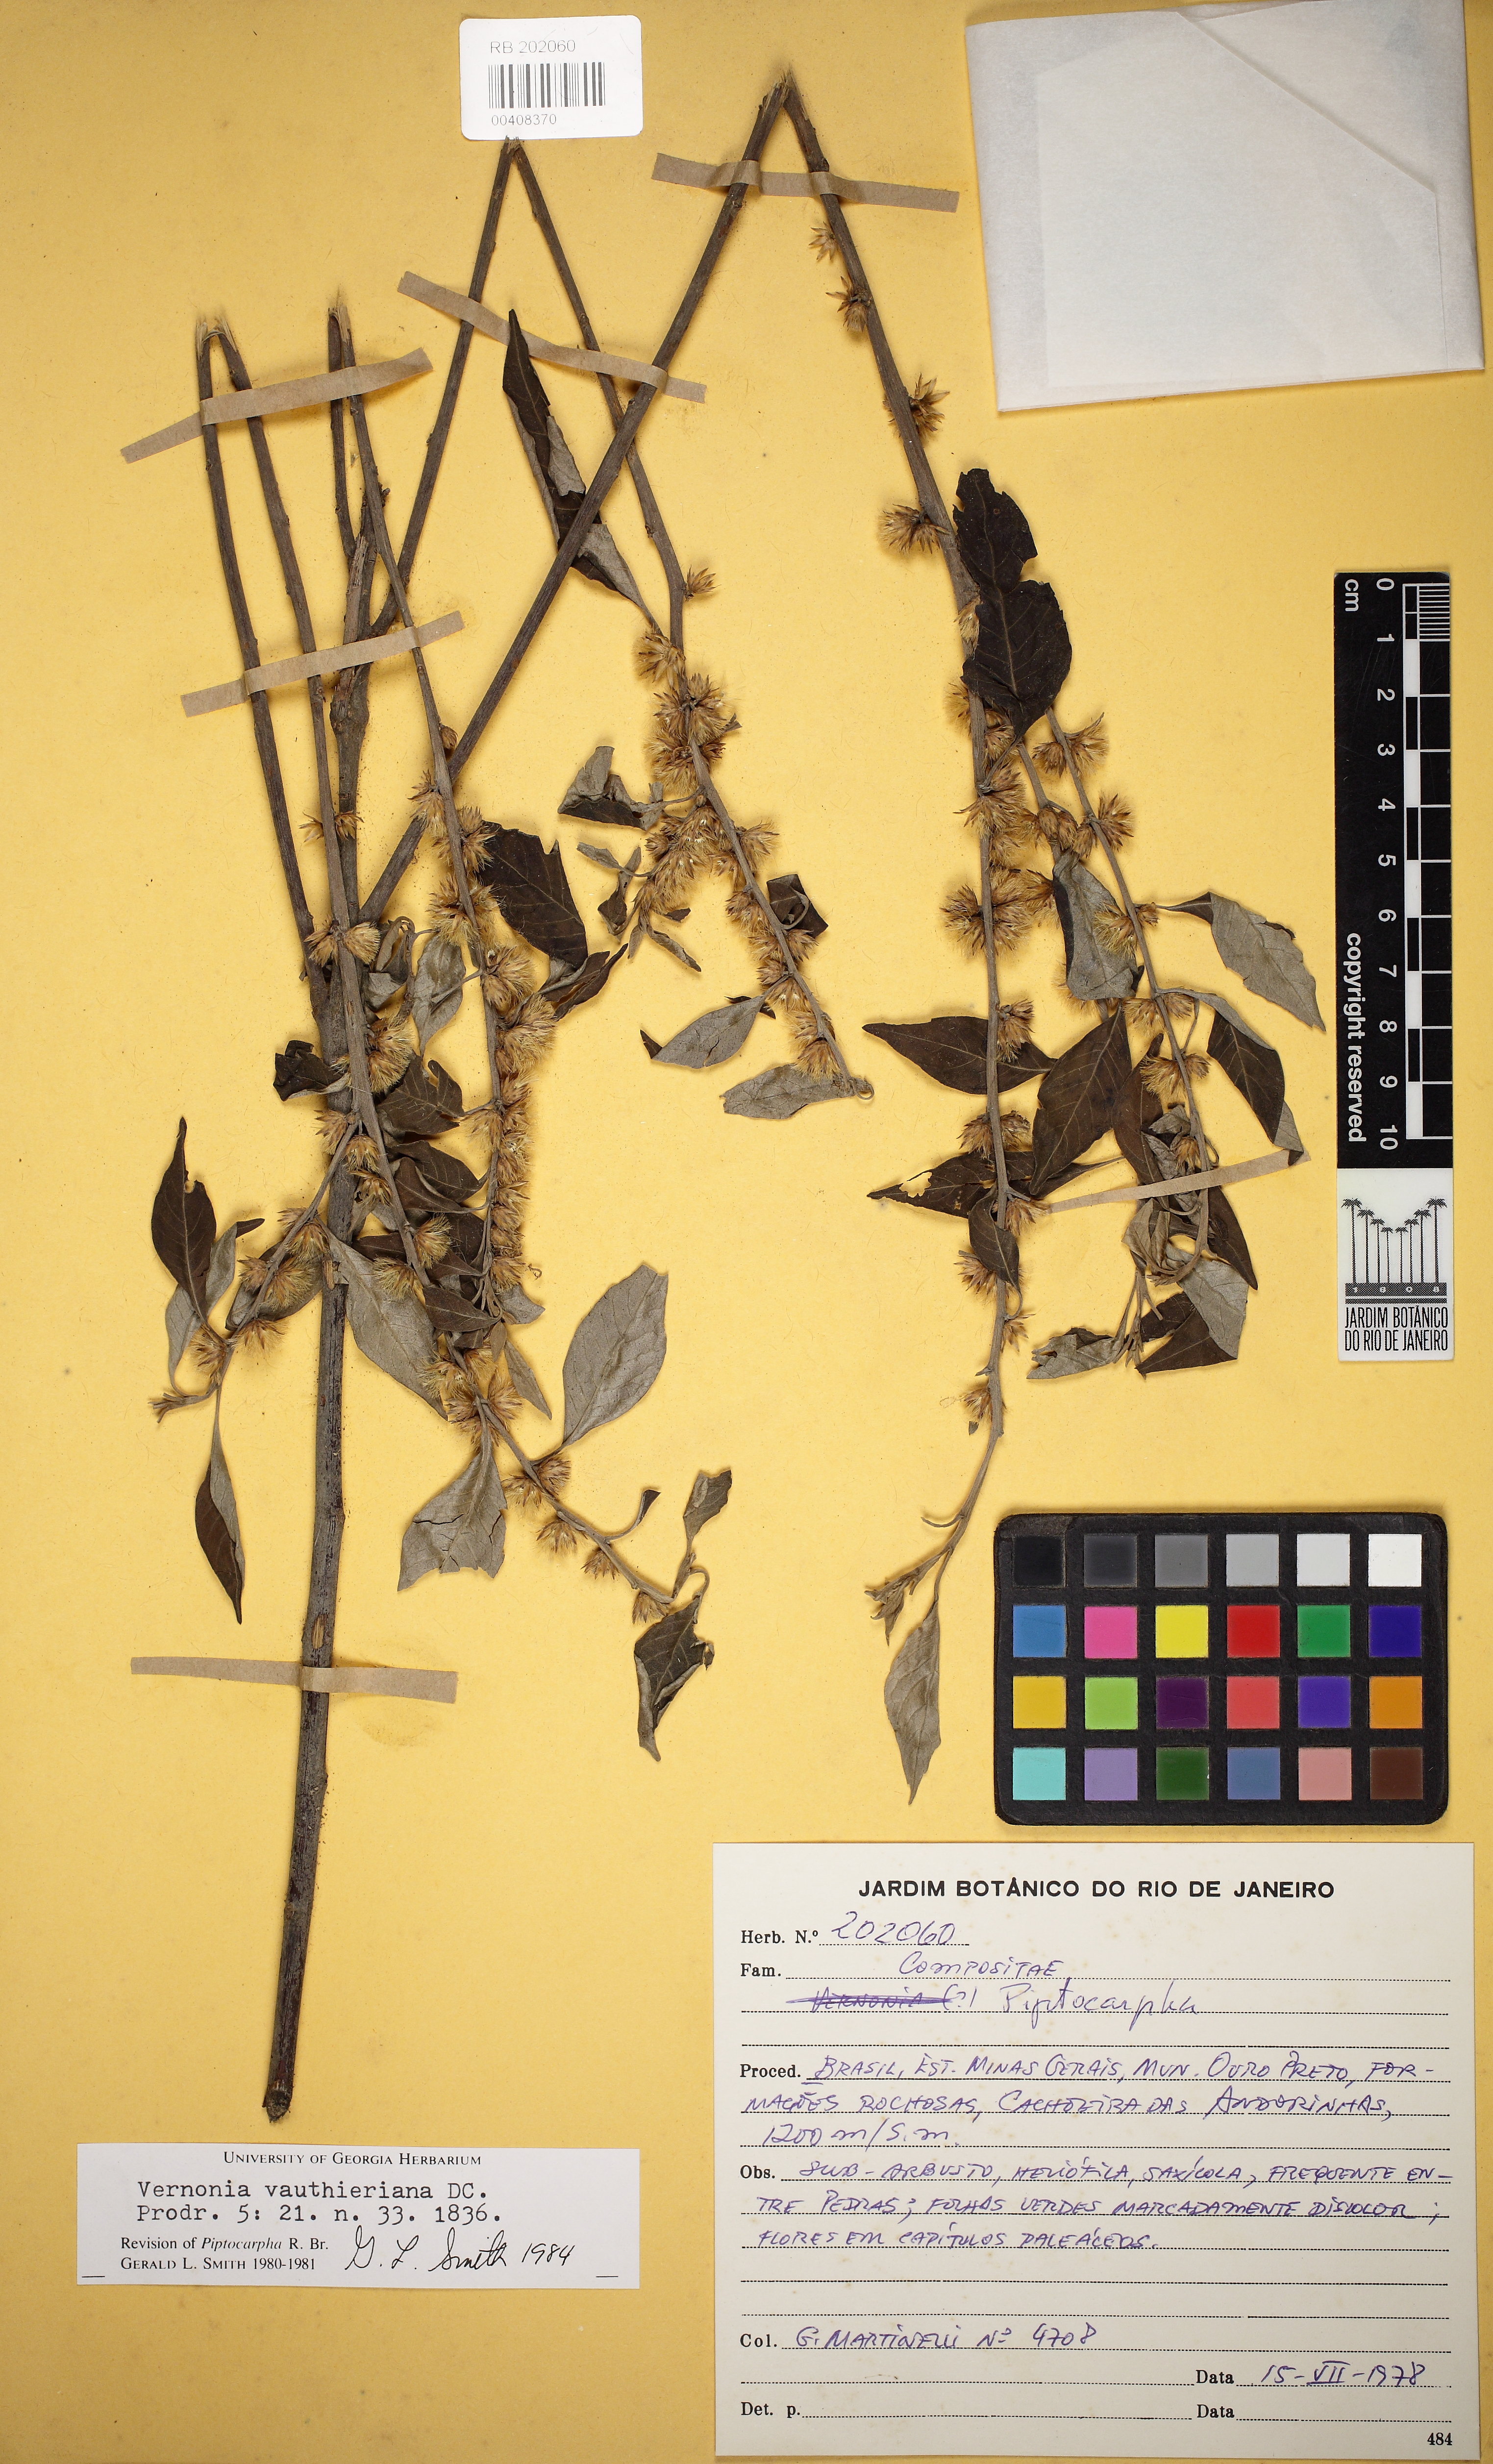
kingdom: Plantae
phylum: Tracheophyta
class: Magnoliopsida
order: Asterales
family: Asteraceae
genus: Lepidaploa
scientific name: Lepidaploa vauthieriana
